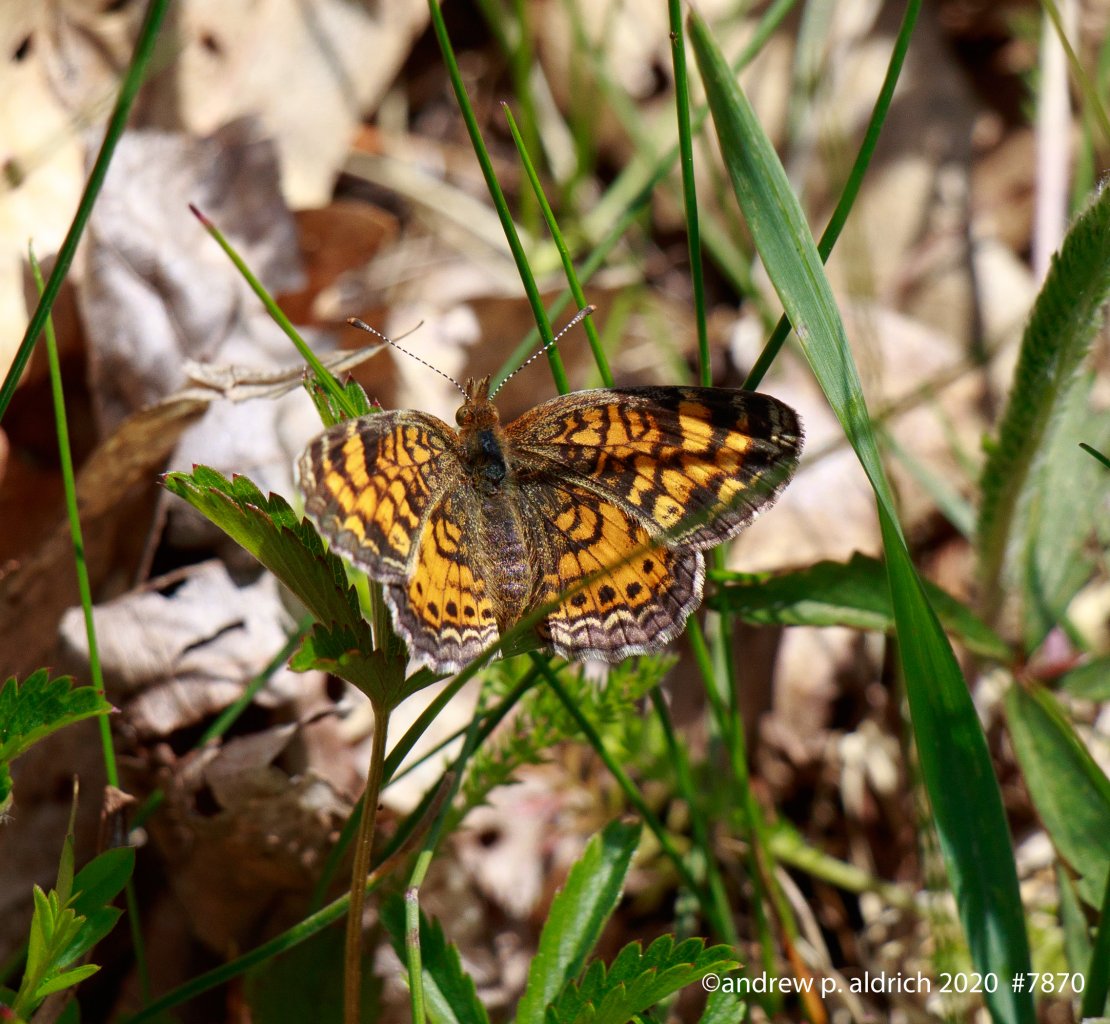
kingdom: Animalia
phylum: Arthropoda
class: Insecta
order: Lepidoptera
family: Nymphalidae
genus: Phyciodes
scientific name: Phyciodes
